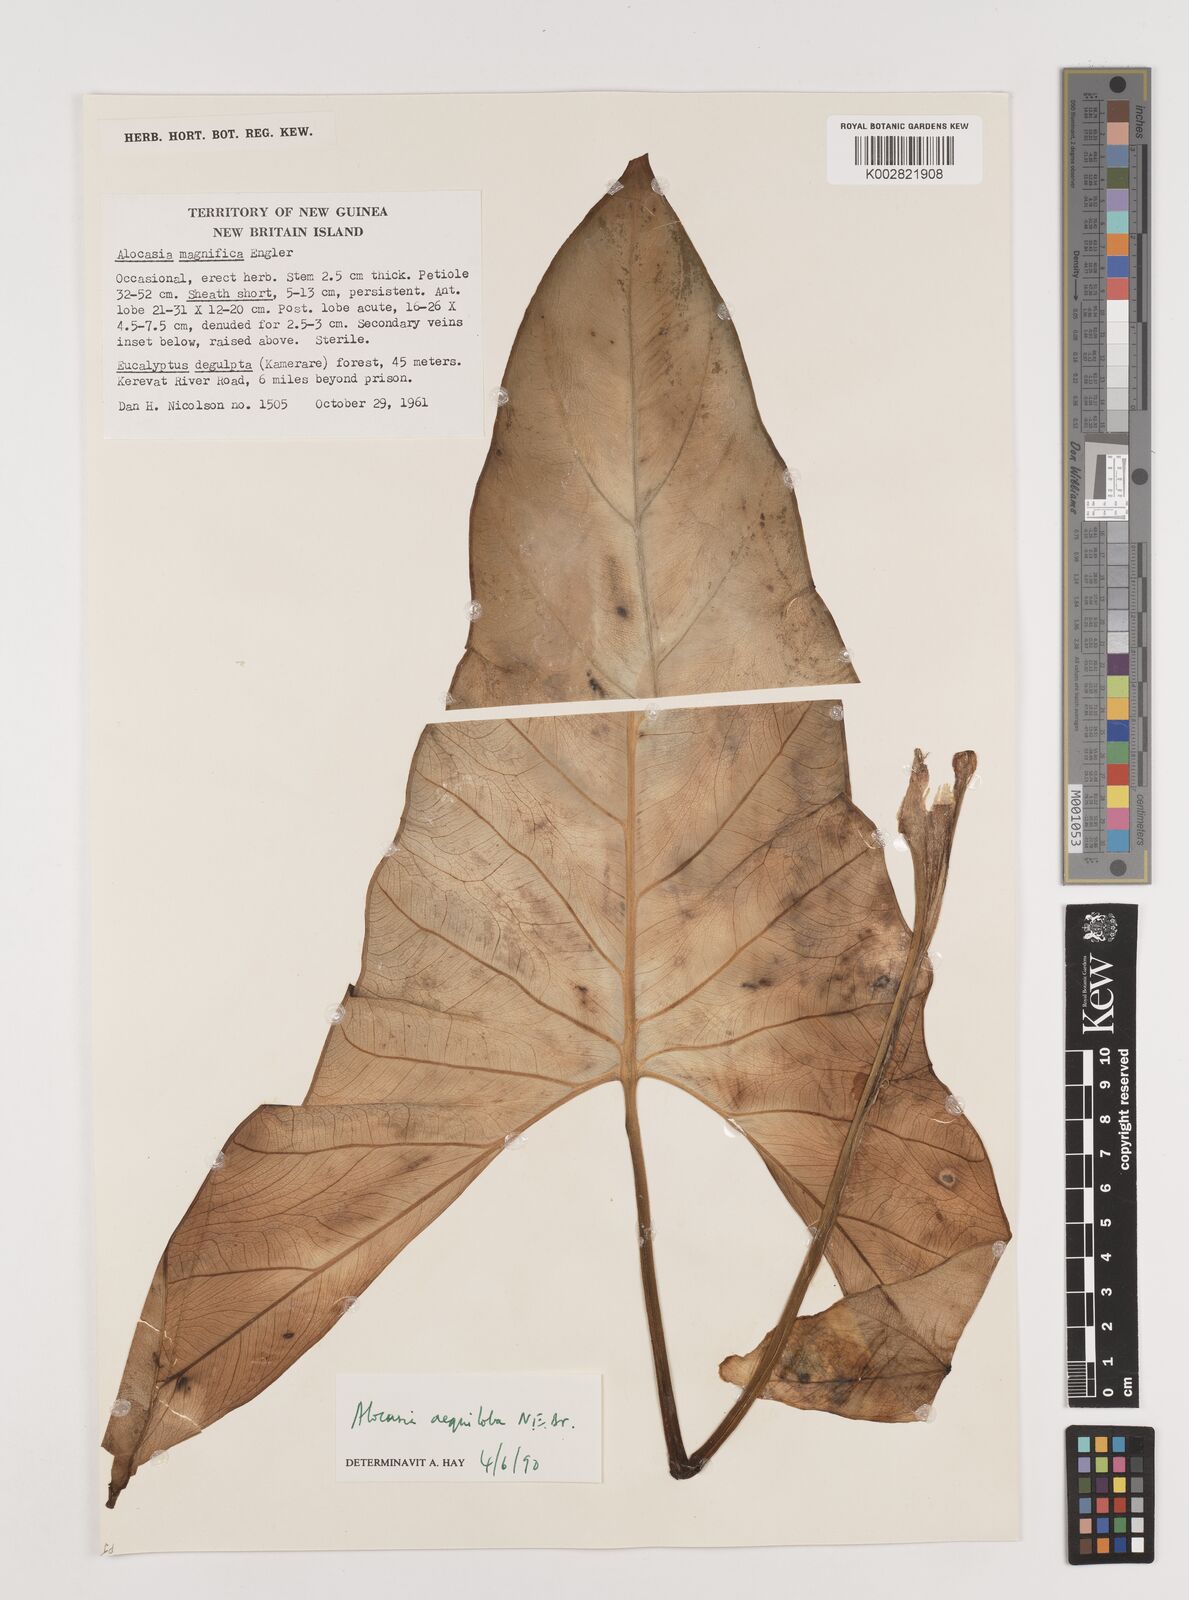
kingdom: Plantae
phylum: Tracheophyta
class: Liliopsida
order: Alismatales
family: Araceae
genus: Alocasia
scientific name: Alocasia aequiloba
